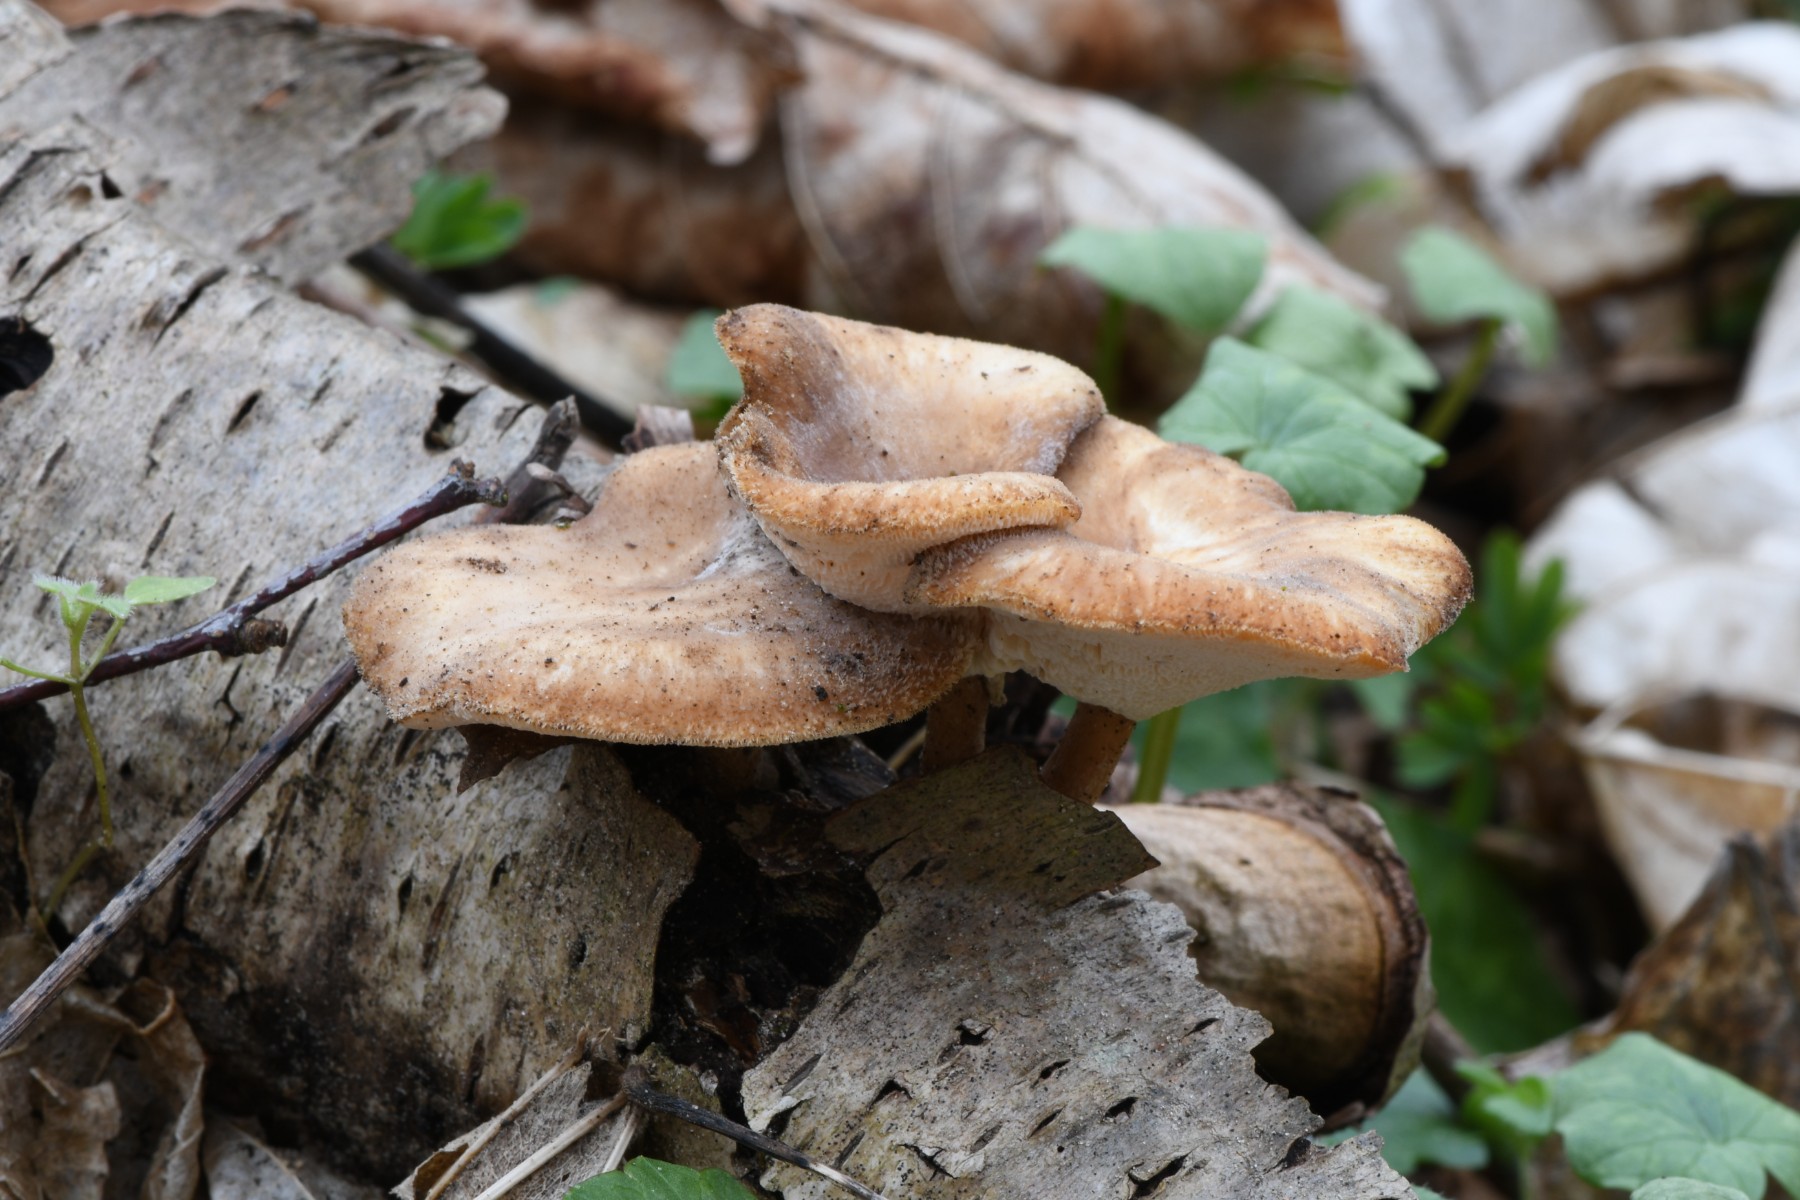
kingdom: Fungi
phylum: Basidiomycota
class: Agaricomycetes
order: Polyporales
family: Polyporaceae
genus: Lentinus
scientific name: Lentinus brumalis
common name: vinter-stilkporesvamp
